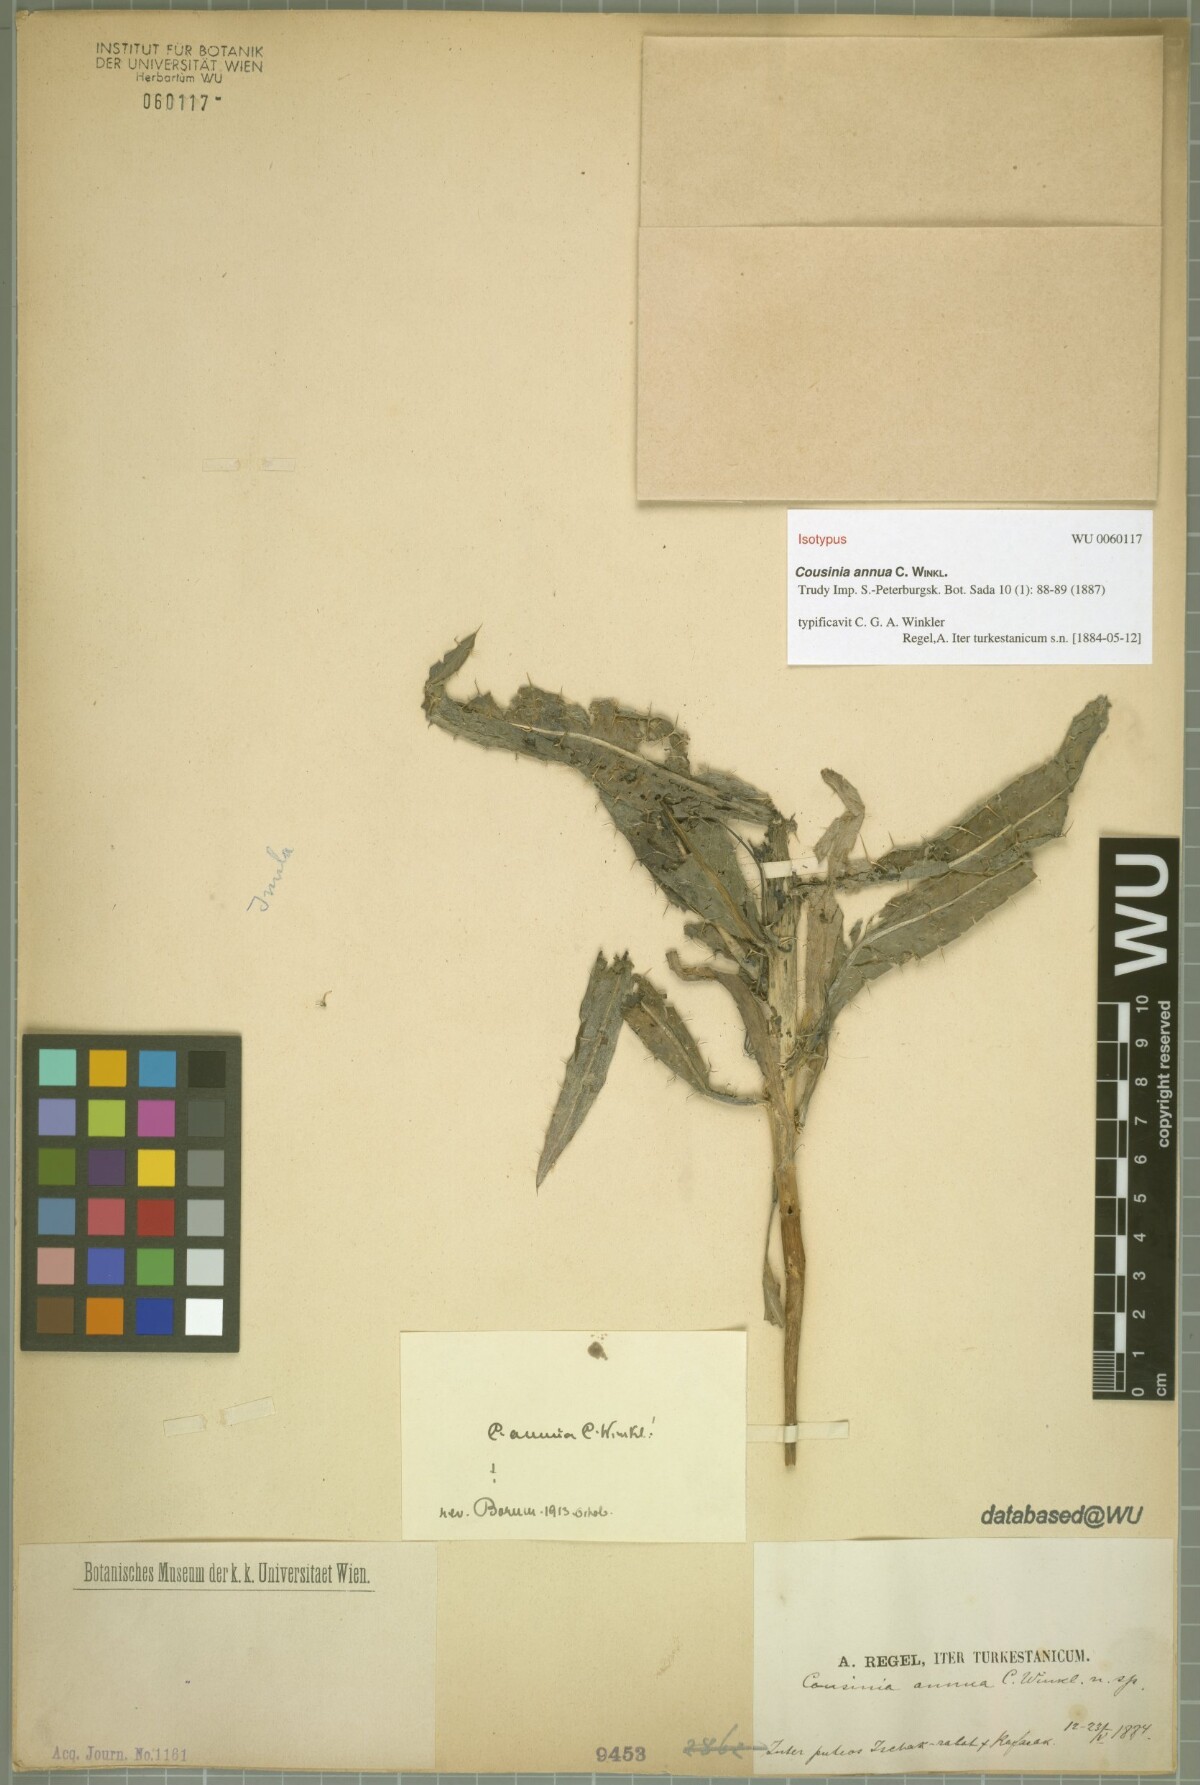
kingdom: Plantae
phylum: Tracheophyta
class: Magnoliopsida
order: Asterales
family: Asteraceae
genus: Cousinia
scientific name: Cousinia annua
